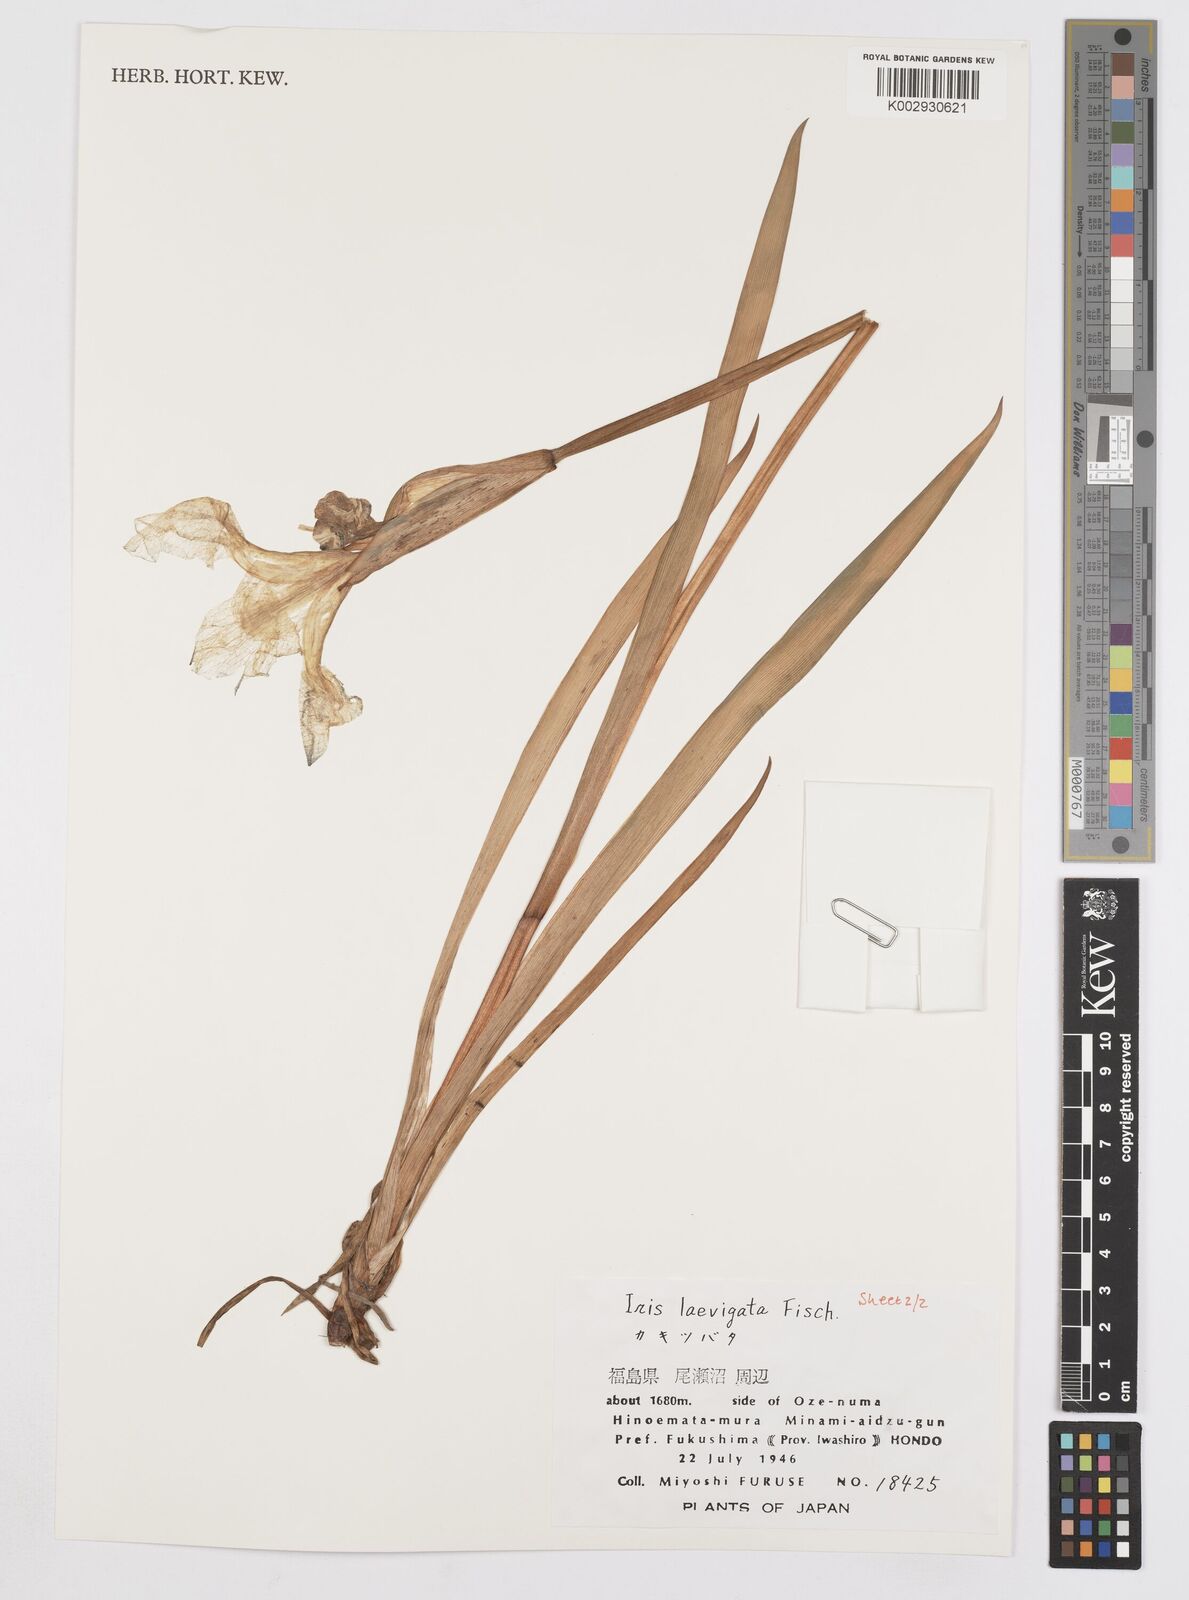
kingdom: Plantae
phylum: Tracheophyta
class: Liliopsida
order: Asparagales
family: Iridaceae
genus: Iris
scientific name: Iris laevigata
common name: Japanese iris
